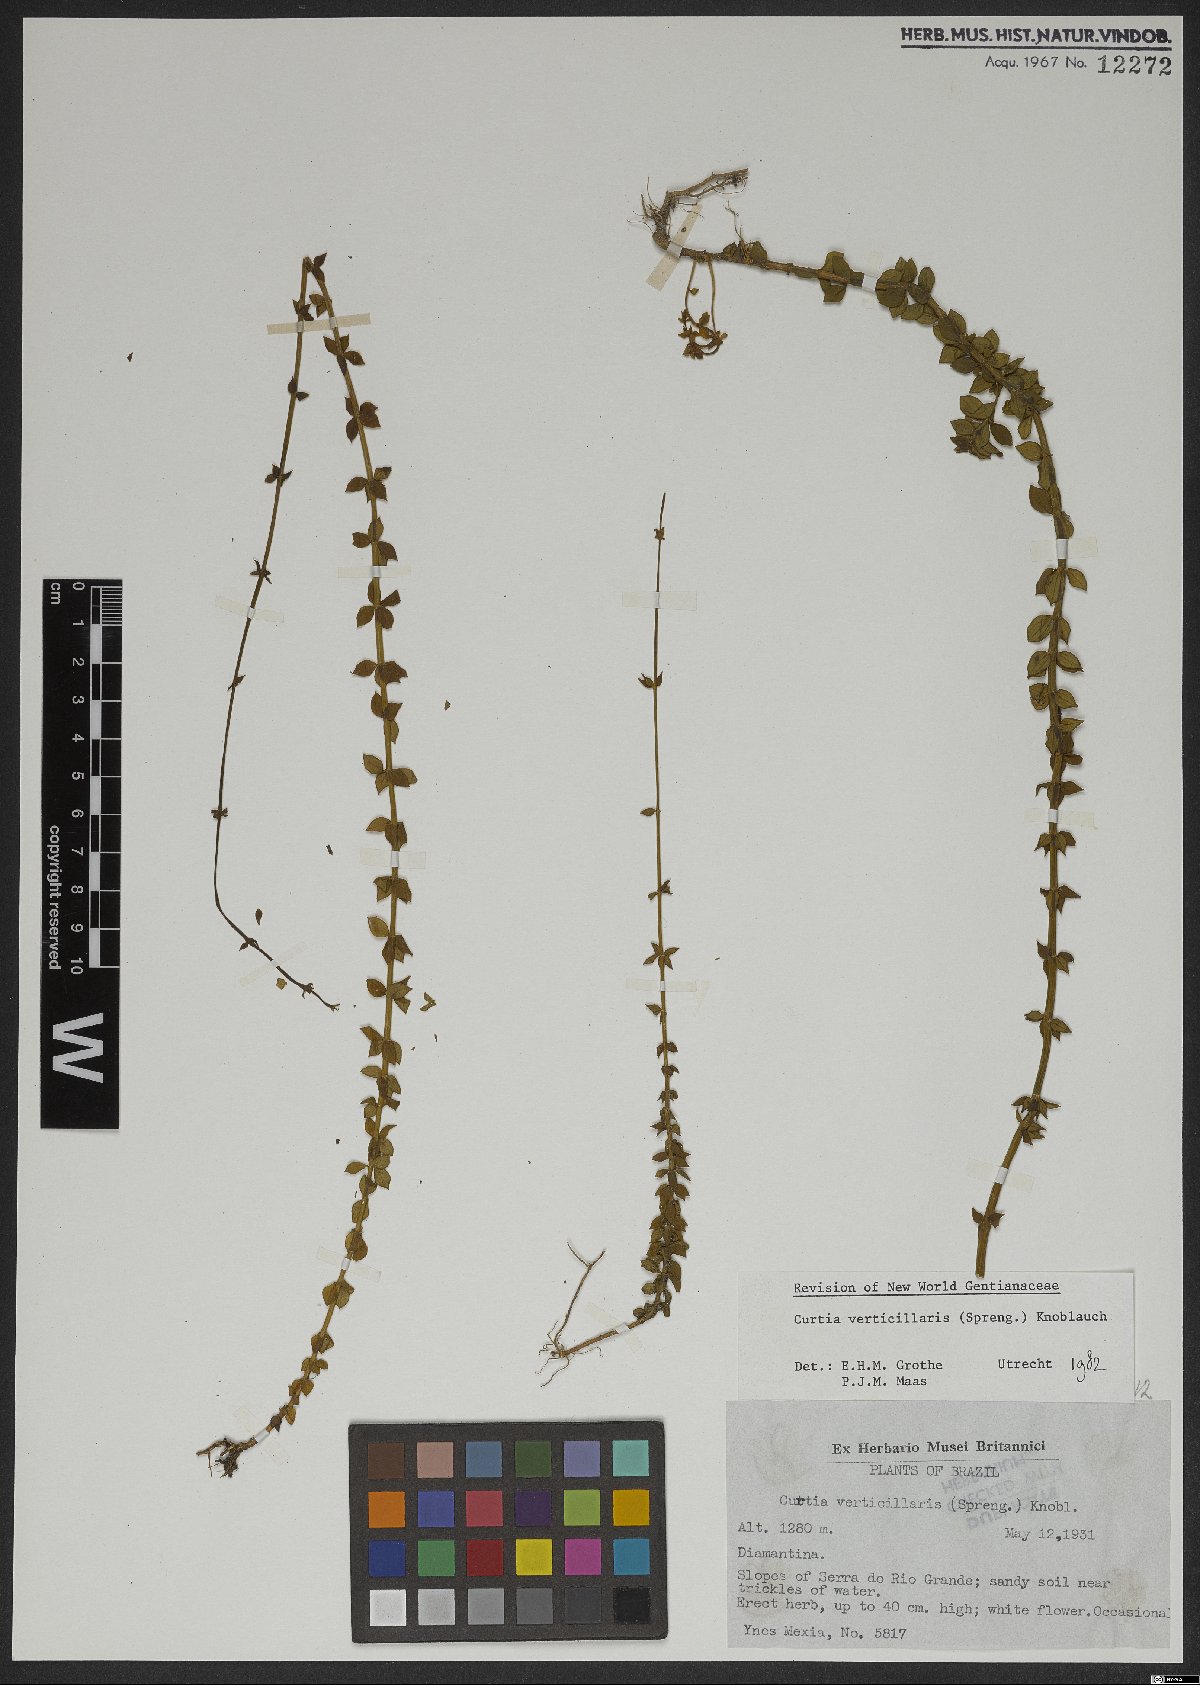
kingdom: Plantae
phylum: Tracheophyta
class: Magnoliopsida
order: Gentianales
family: Gentianaceae
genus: Curtia
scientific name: Curtia verticillaris
